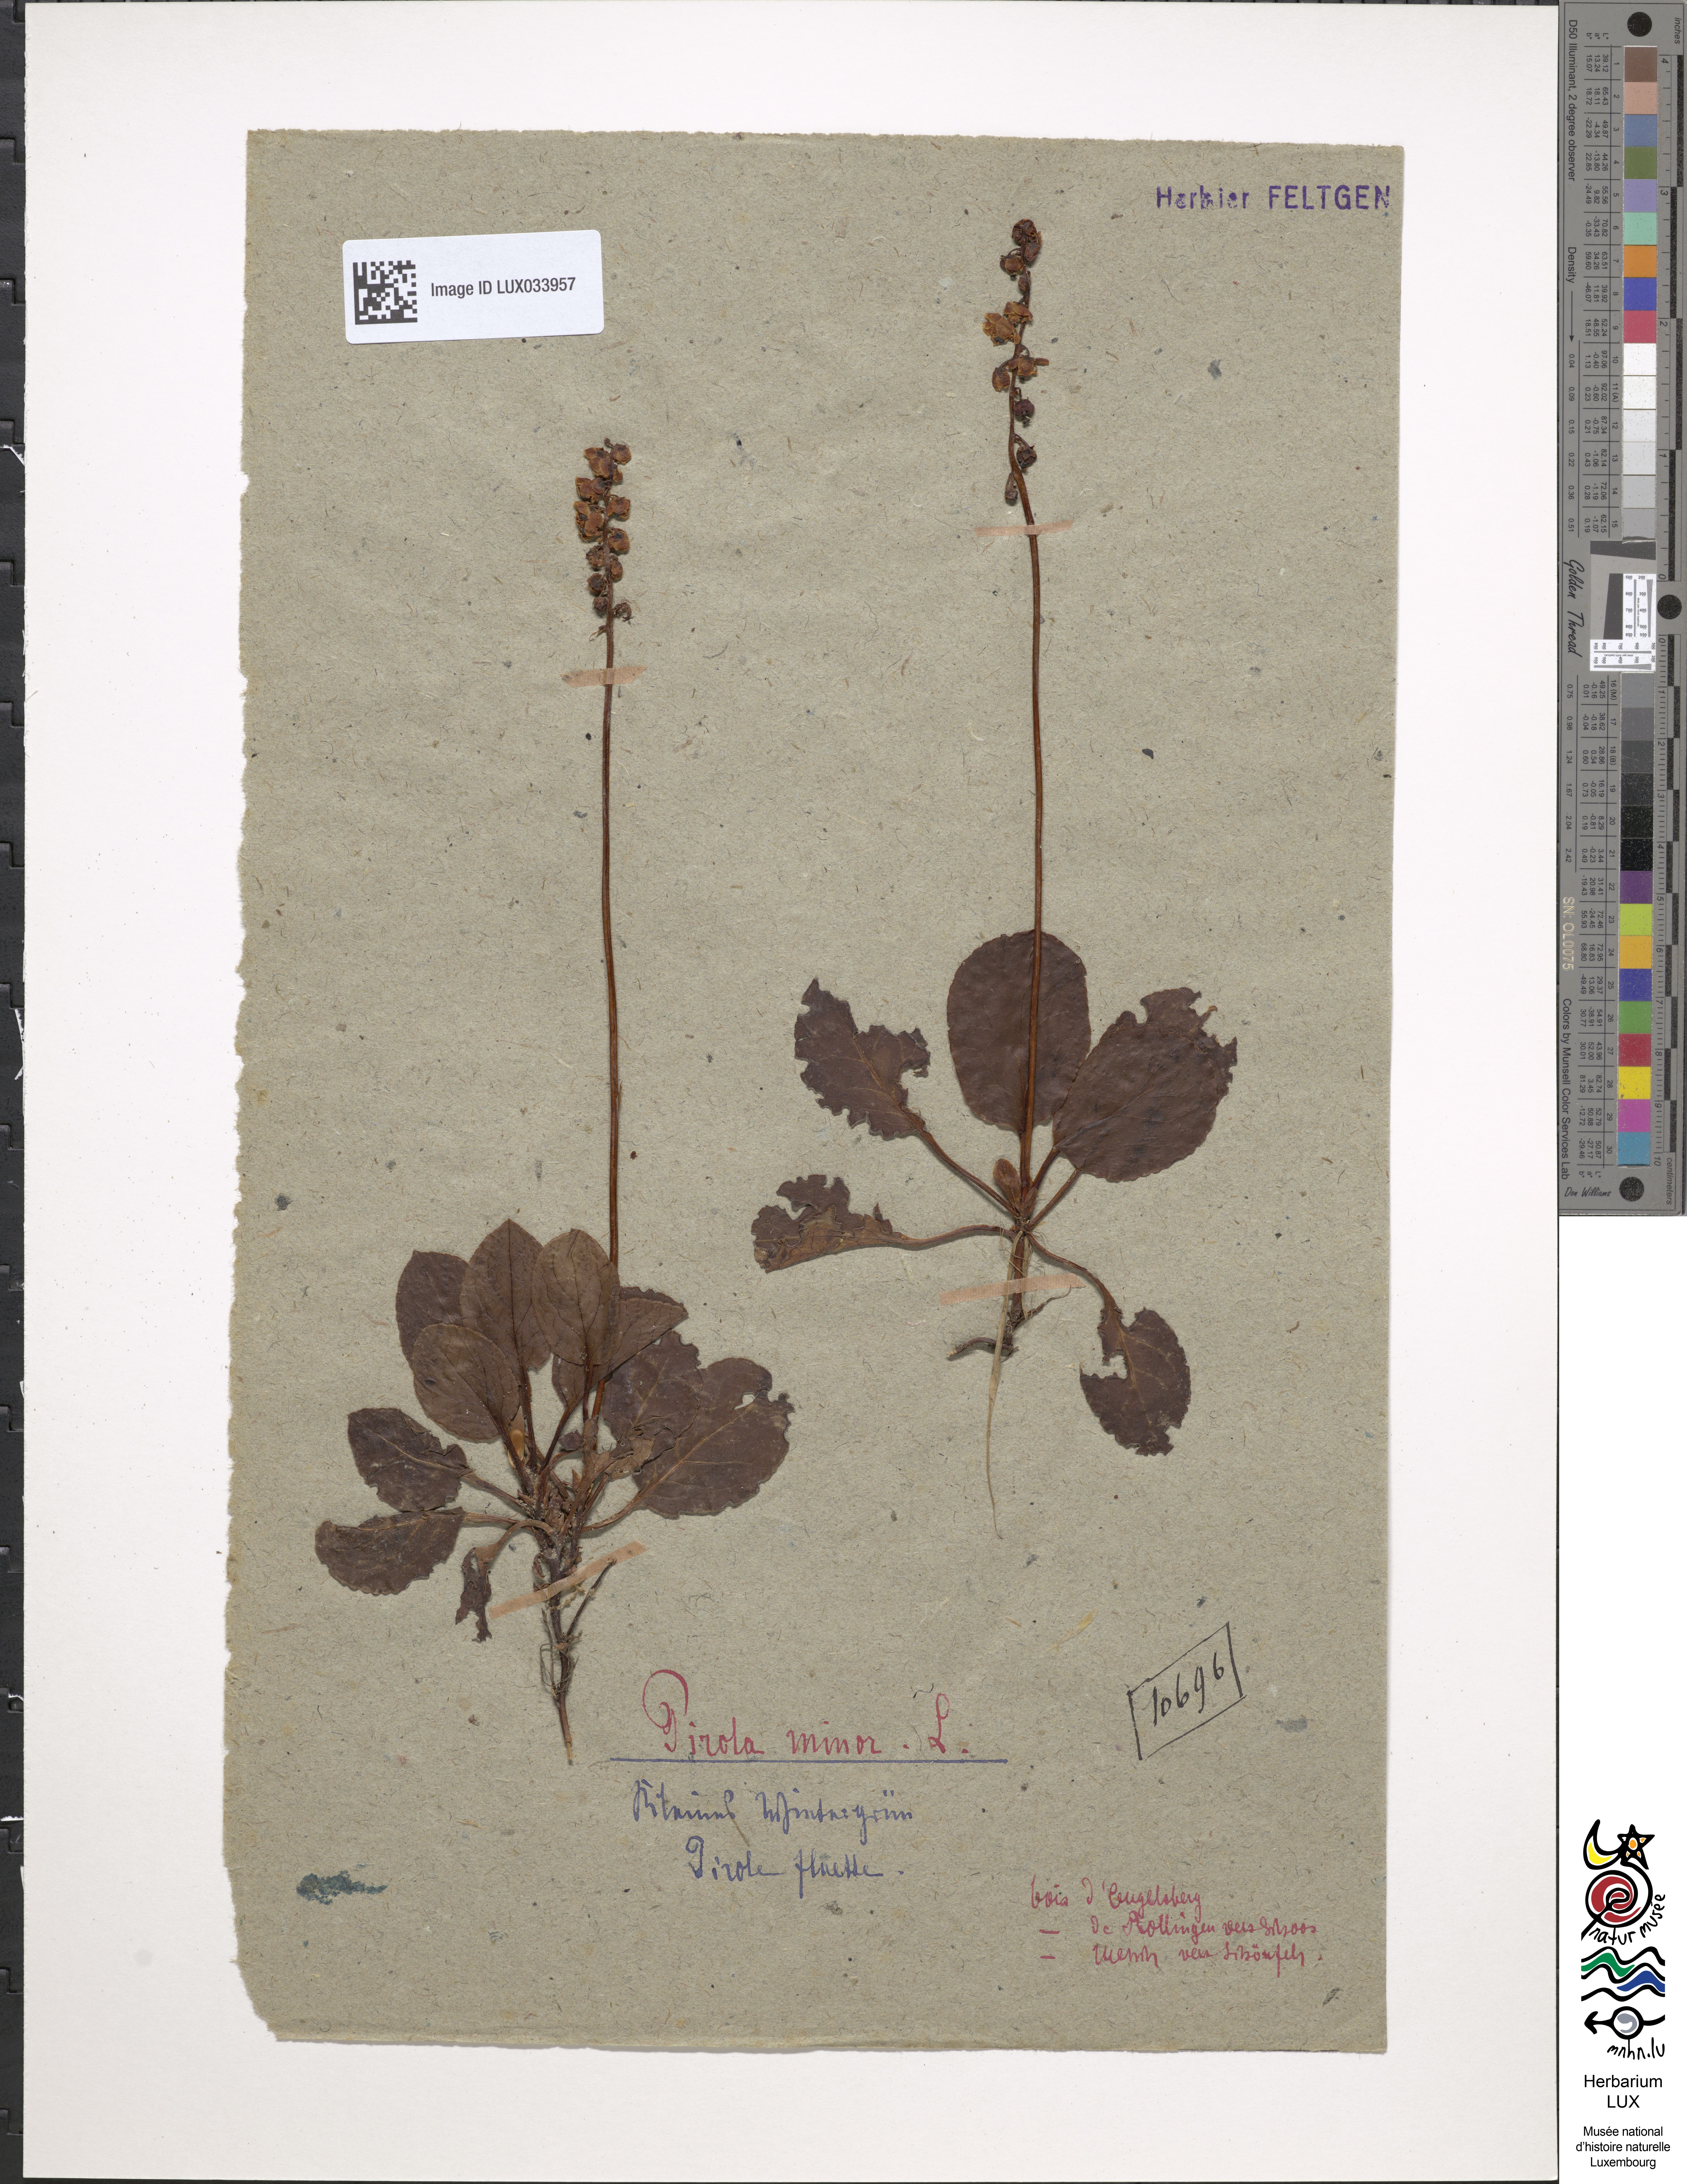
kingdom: Plantae
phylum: Tracheophyta
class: Magnoliopsida
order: Ericales
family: Ericaceae
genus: Pyrola
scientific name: Pyrola minor
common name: Common wintergreen
